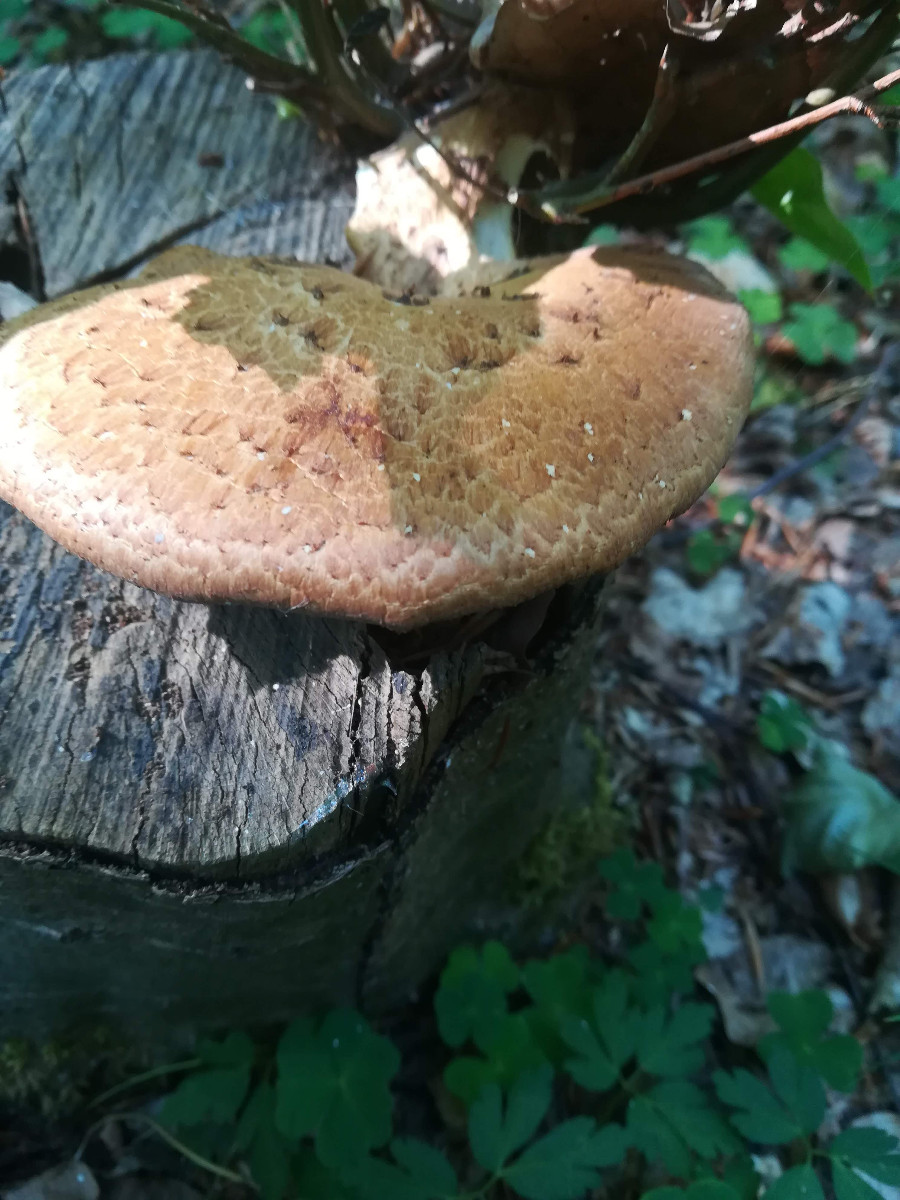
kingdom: Fungi
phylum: Basidiomycota
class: Agaricomycetes
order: Polyporales
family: Polyporaceae
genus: Polyporus
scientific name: Polyporus tuberaster
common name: knoldet stilkporesvamp
